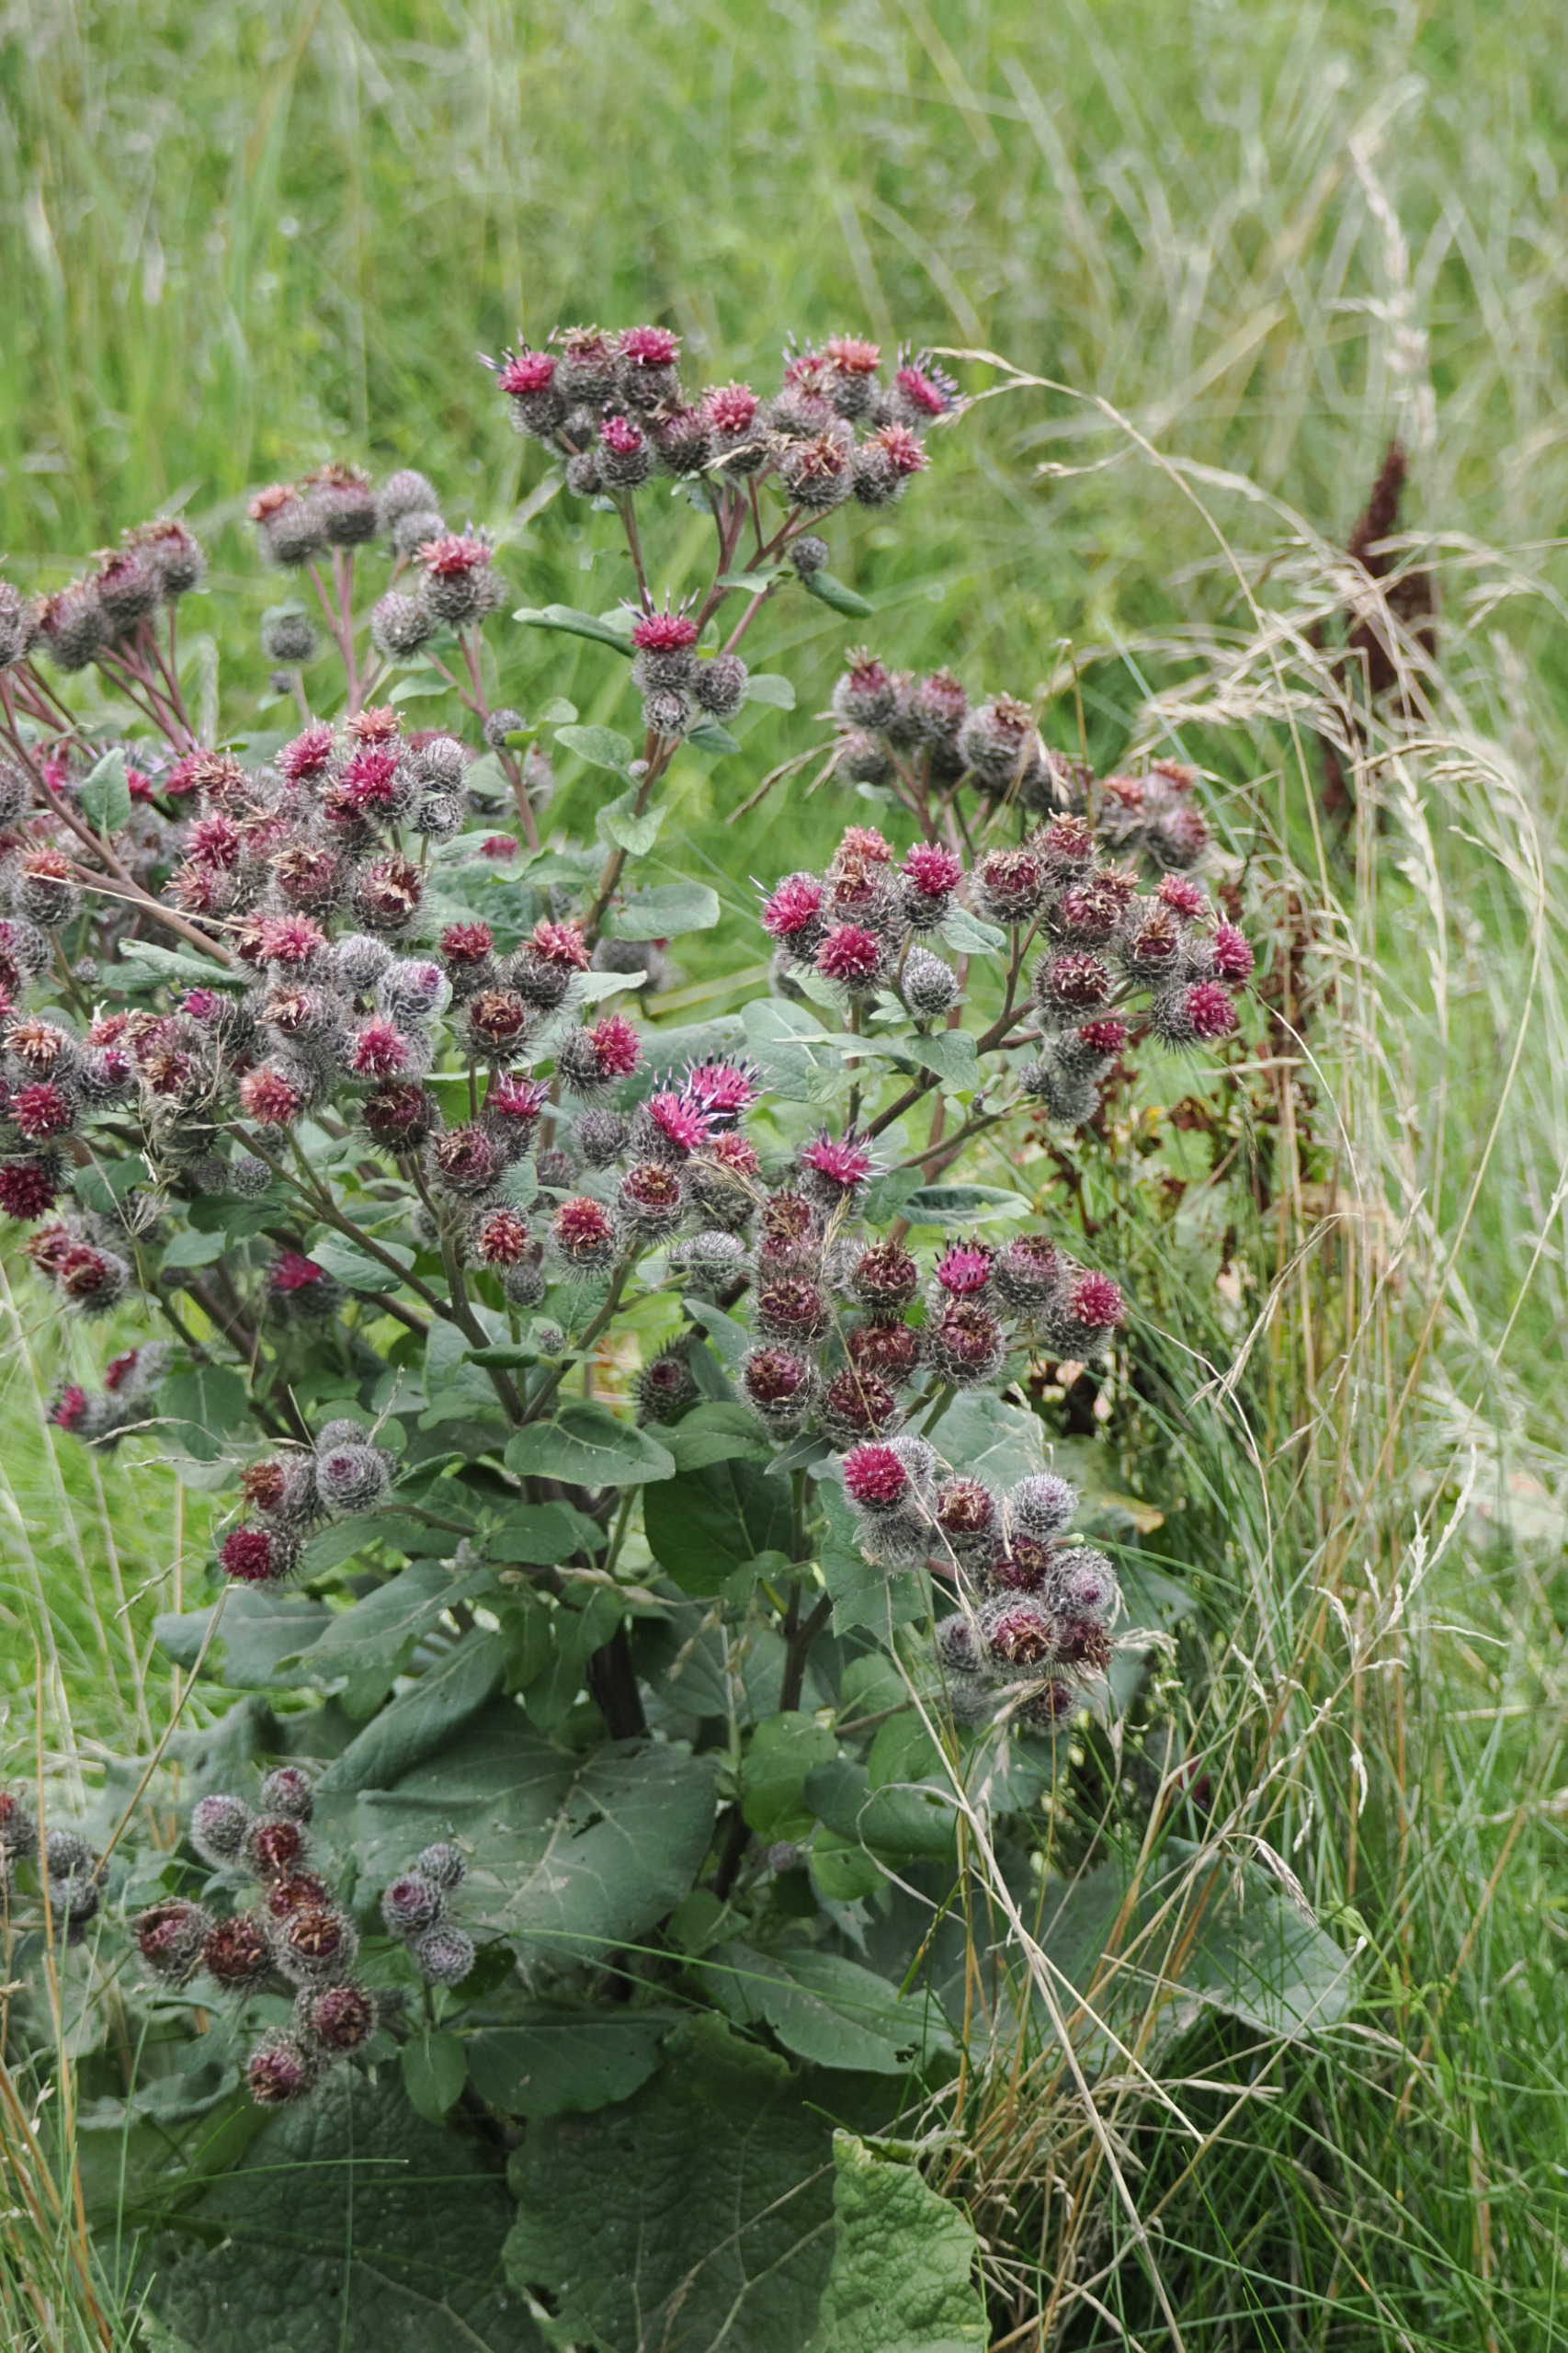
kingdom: Plantae
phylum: Tracheophyta
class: Magnoliopsida
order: Asterales
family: Asteraceae
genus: Arctium
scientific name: Arctium tomentosum
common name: Filtet burre
